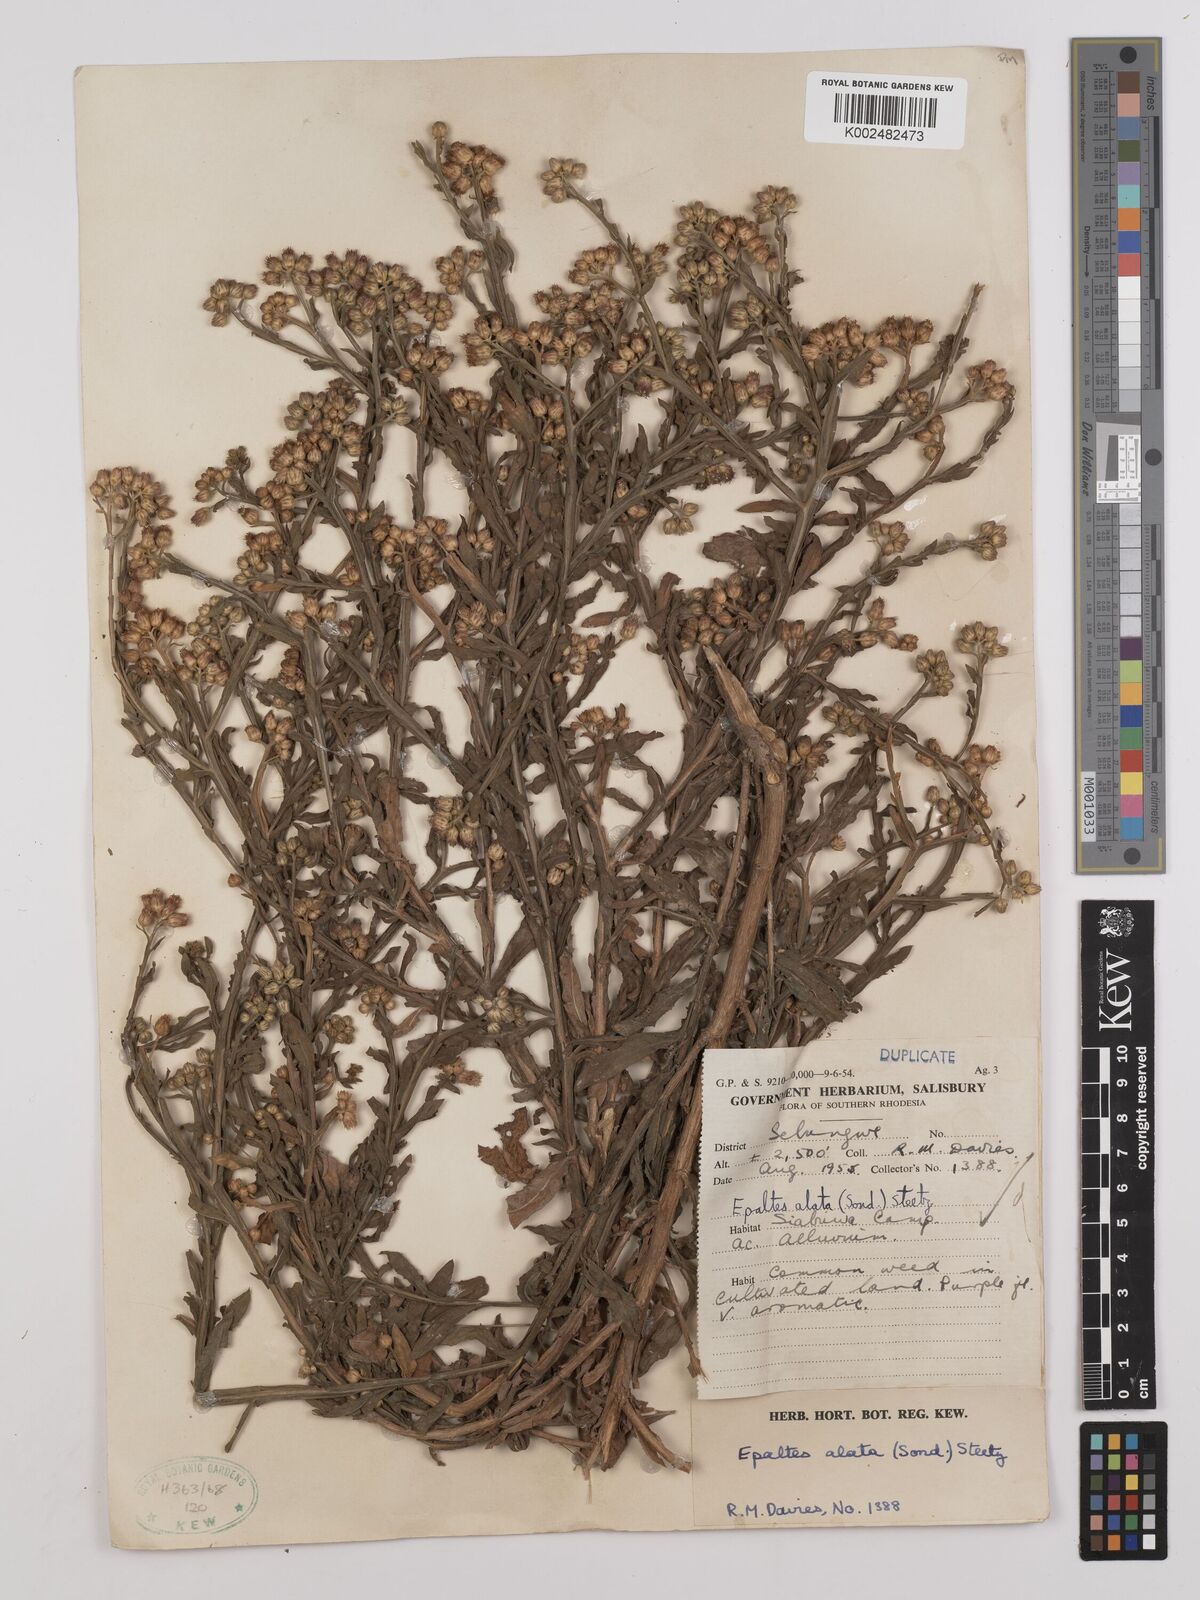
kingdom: Plantae
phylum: Tracheophyta
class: Magnoliopsida
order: Asterales
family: Asteraceae
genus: Litogyne
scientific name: Litogyne gariepina
